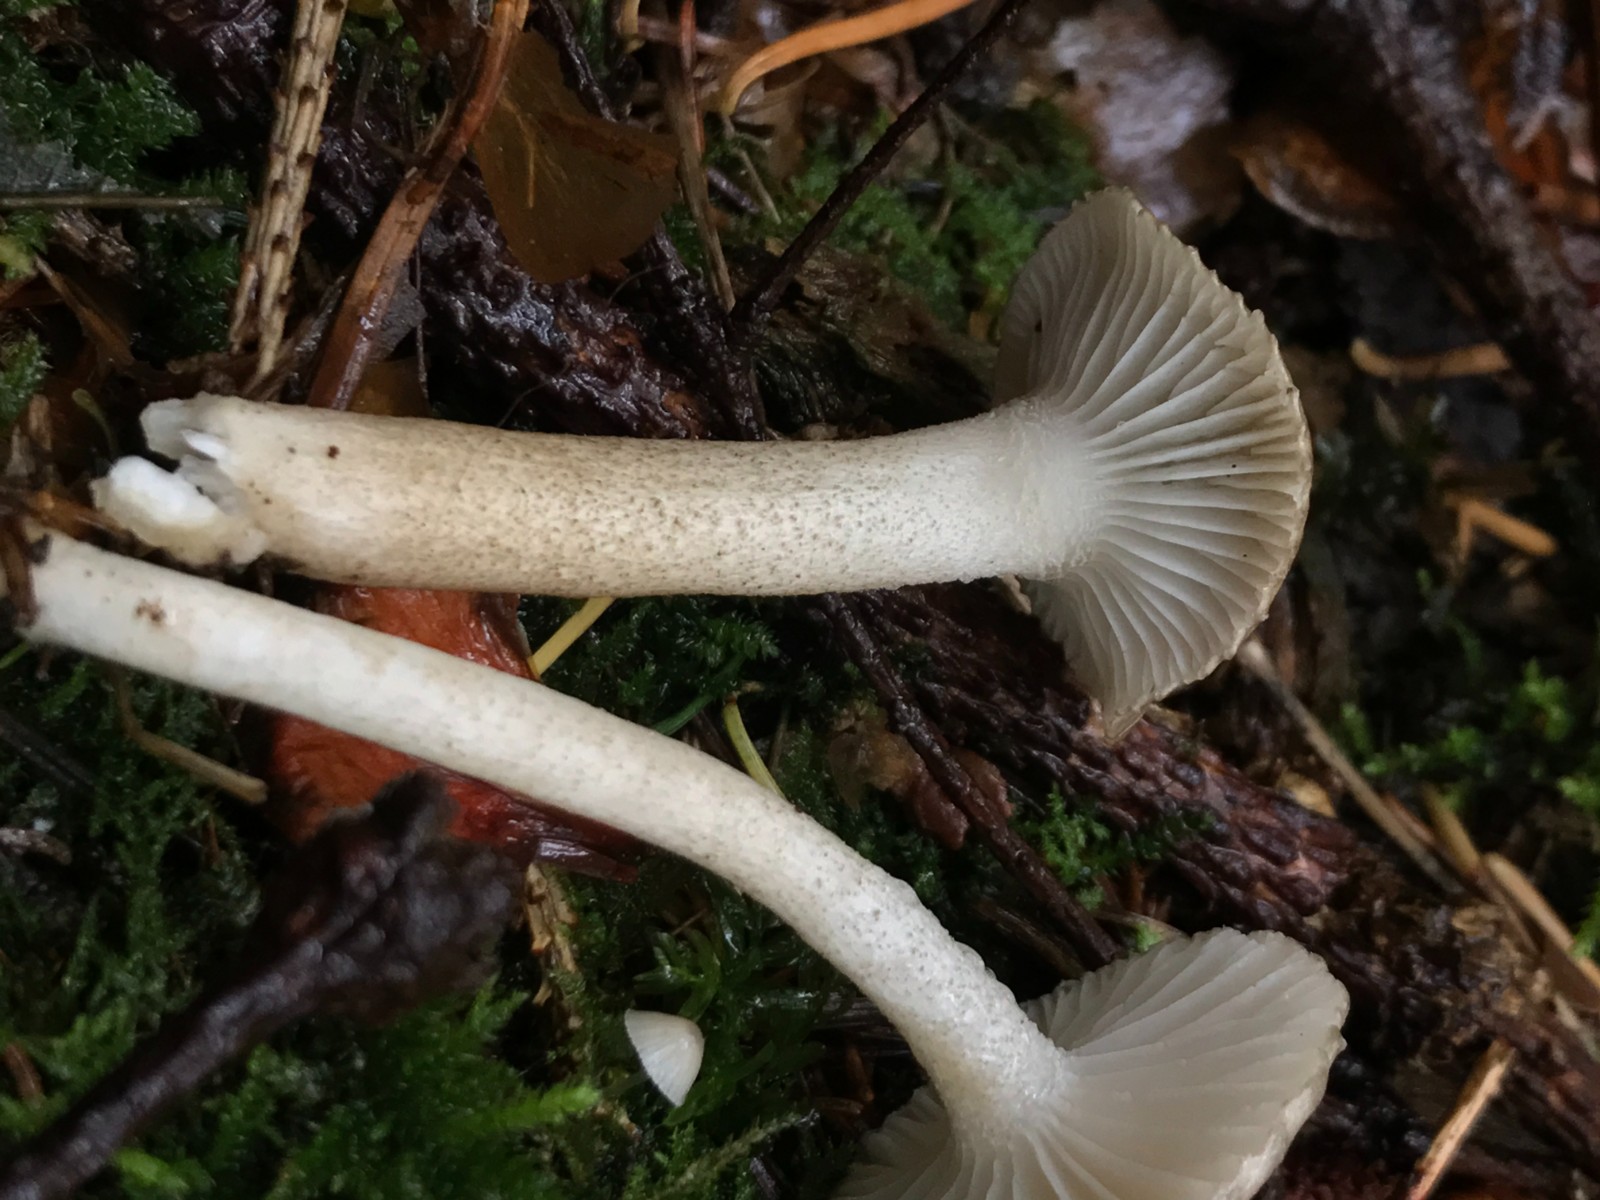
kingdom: Fungi
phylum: Basidiomycota
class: Agaricomycetes
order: Agaricales
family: Hygrophoraceae
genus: Hygrophorus
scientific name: Hygrophorus pustulatus
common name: mørkprikket sneglehat
